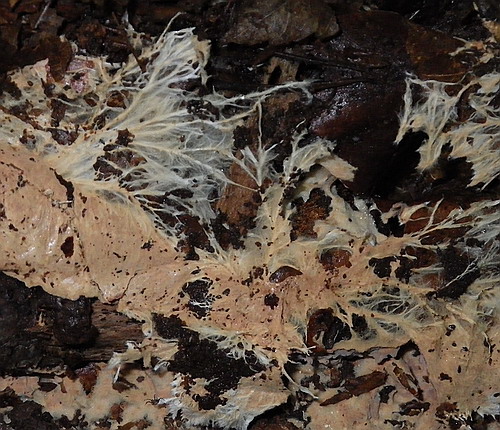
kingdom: Fungi
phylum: Basidiomycota
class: Agaricomycetes
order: Trechisporales
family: Sistotremataceae
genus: Trechispora
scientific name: Trechispora fastidiosa
